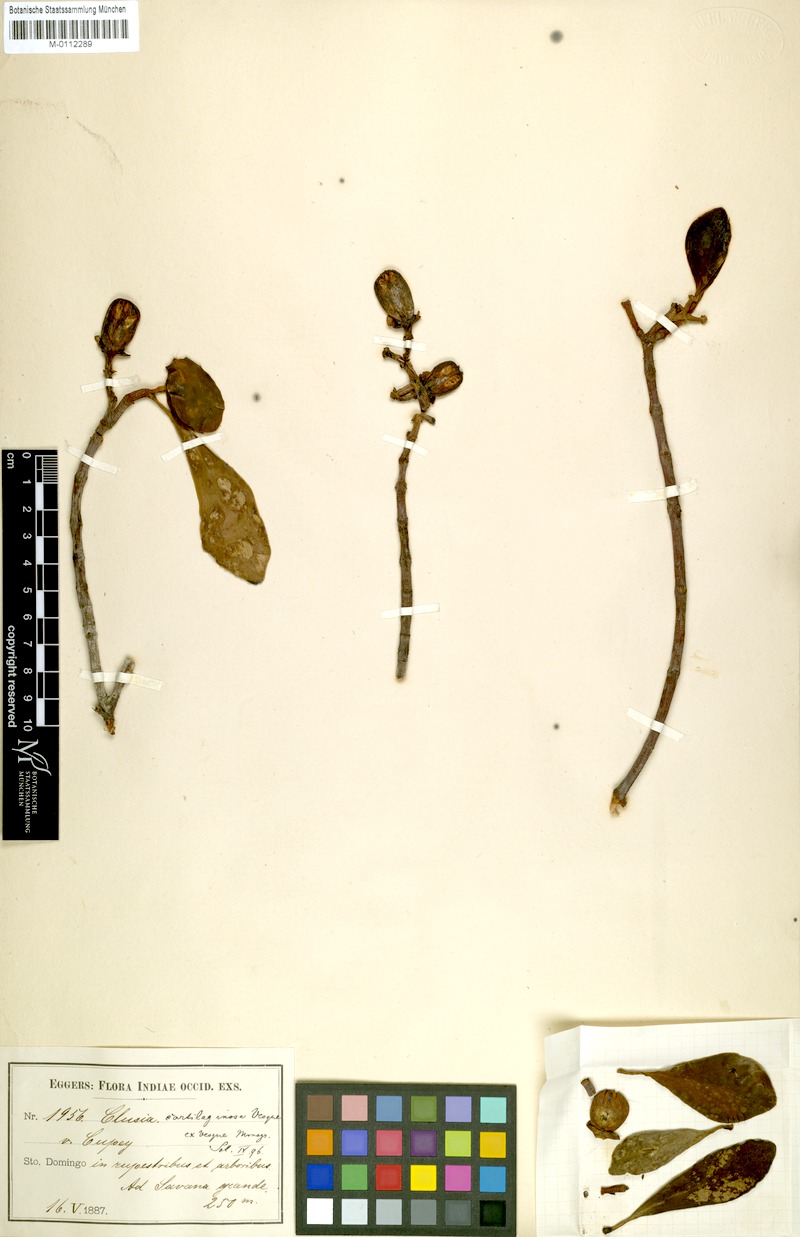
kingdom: Plantae
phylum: Tracheophyta
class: Magnoliopsida
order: Malpighiales
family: Clusiaceae
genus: Clusia
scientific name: Clusia minor
